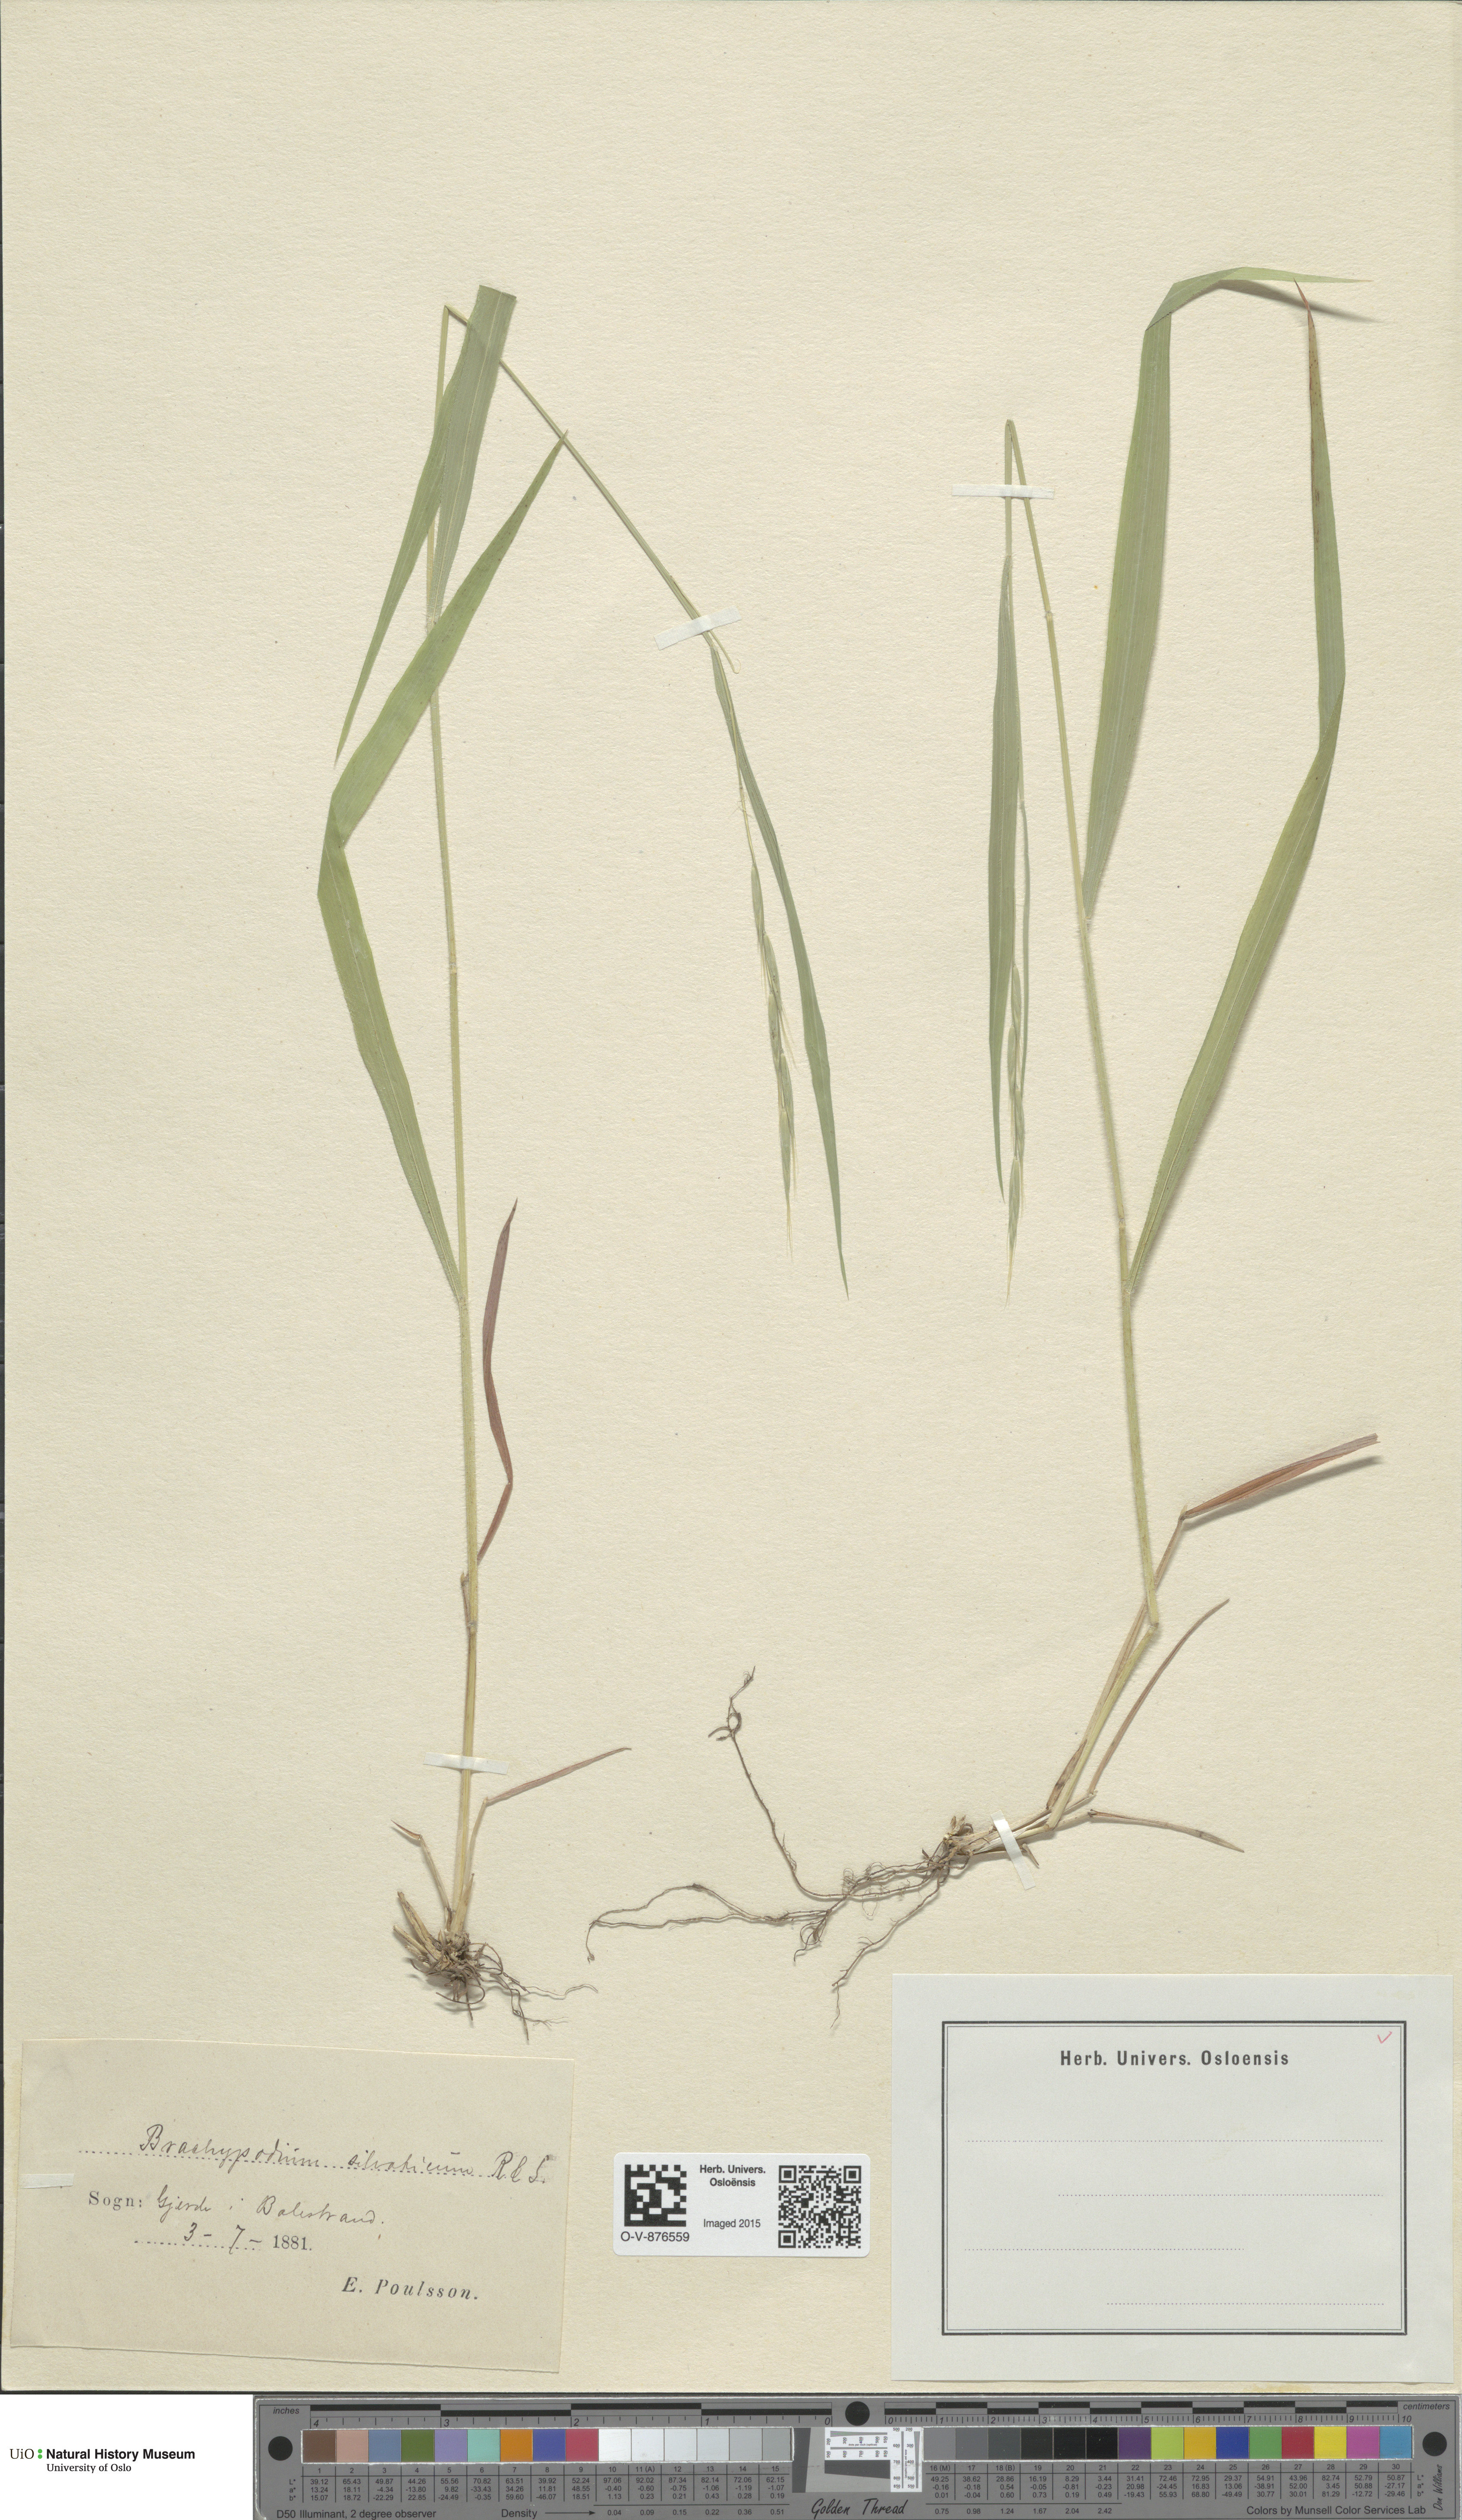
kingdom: Plantae
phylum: Tracheophyta
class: Liliopsida
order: Poales
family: Poaceae
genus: Brachypodium
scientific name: Brachypodium sylvaticum
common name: False-brome
